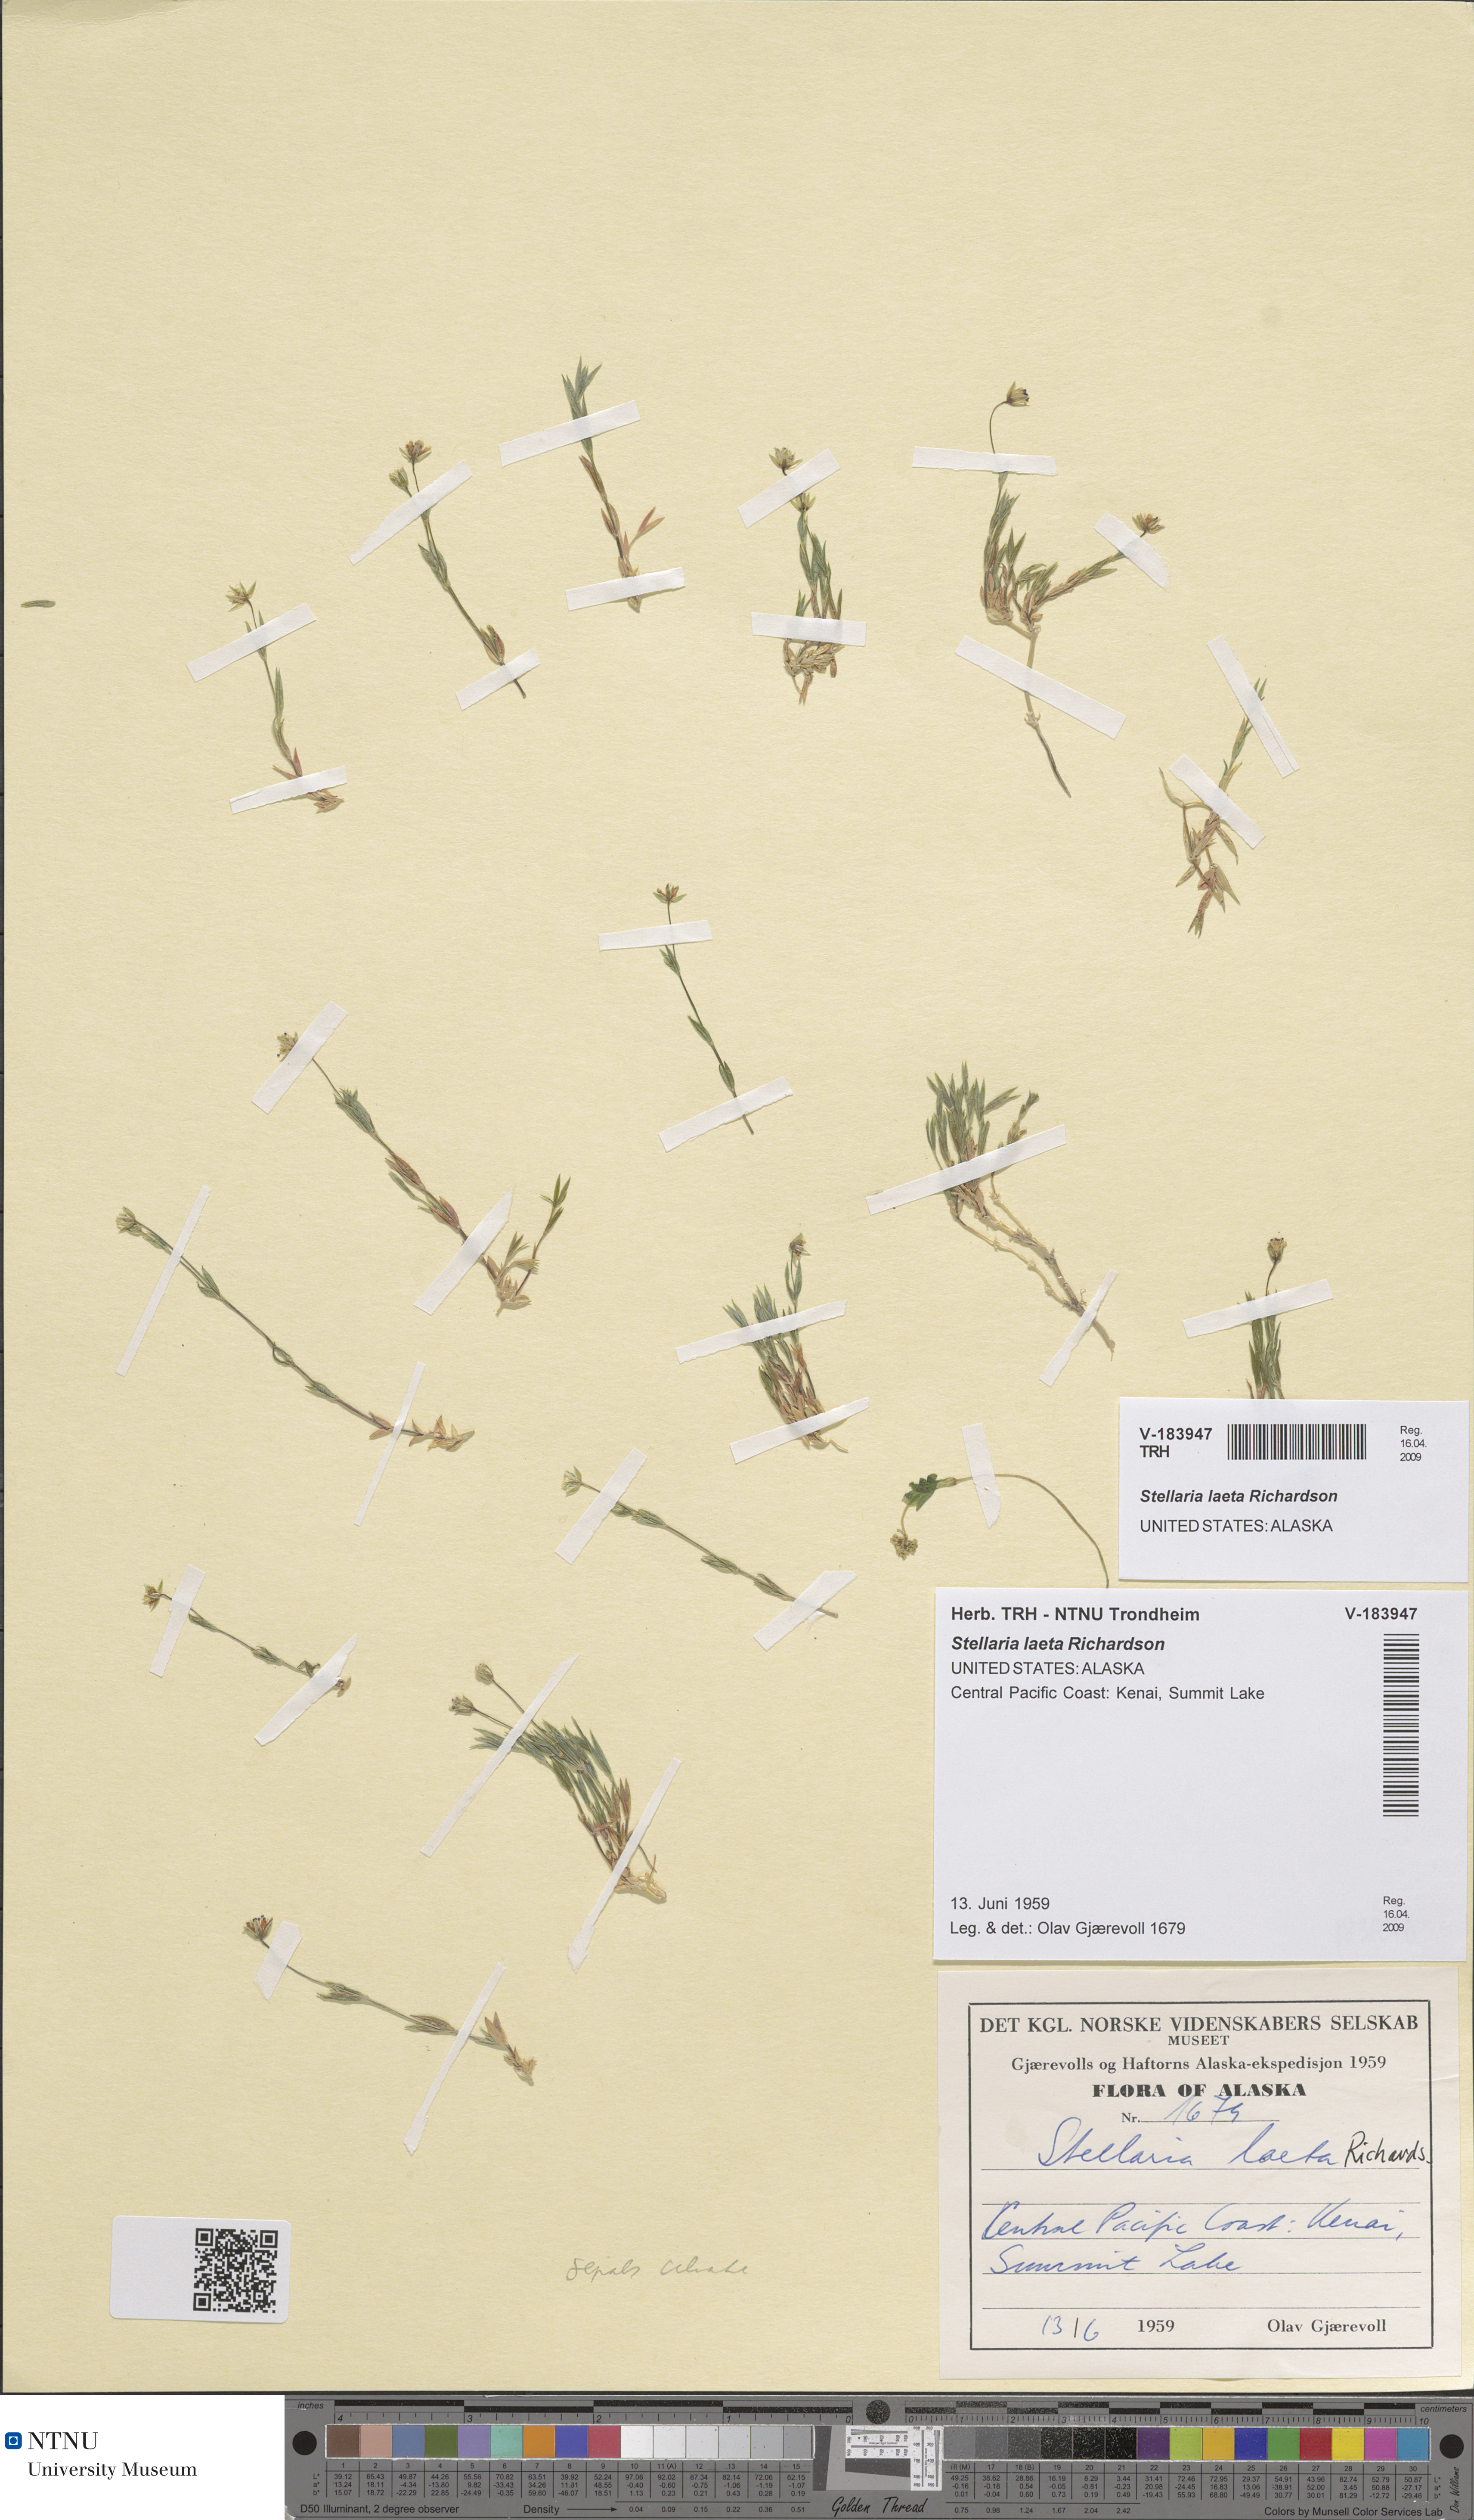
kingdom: Plantae
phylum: Tracheophyta
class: Magnoliopsida
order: Caryophyllales
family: Caryophyllaceae
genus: Stellaria
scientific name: Stellaria laeta
